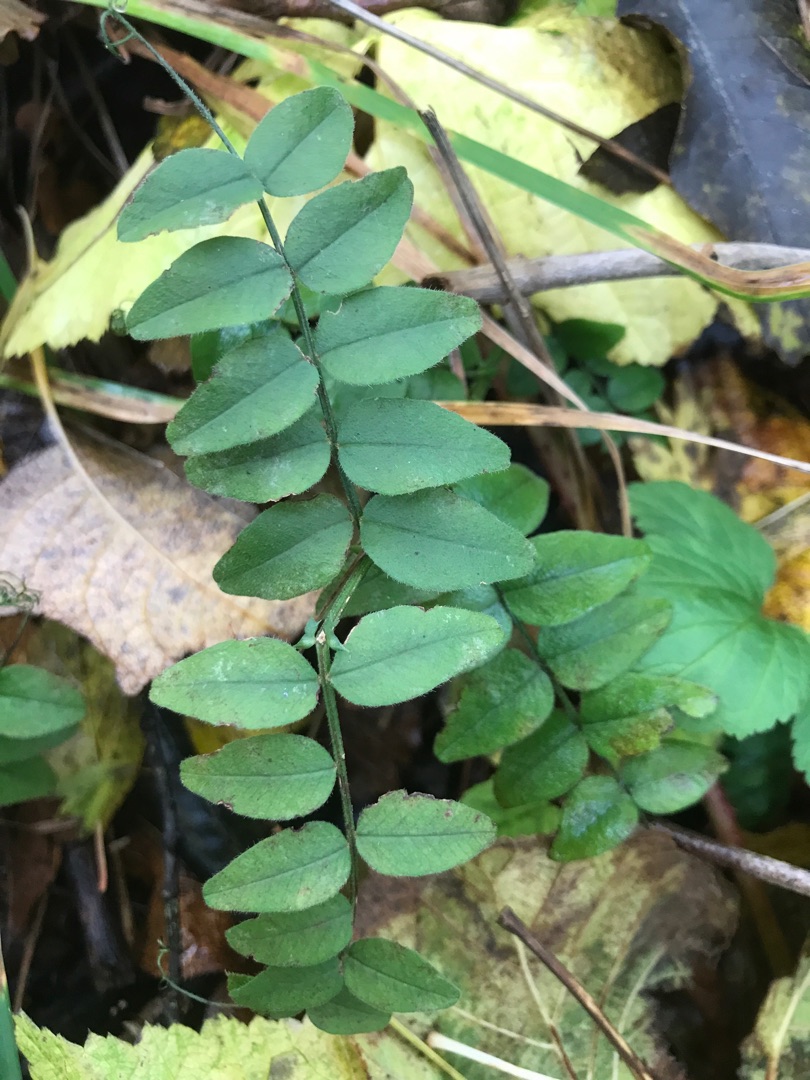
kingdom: Plantae
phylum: Tracheophyta
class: Magnoliopsida
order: Fabales
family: Fabaceae
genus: Vicia
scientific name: Vicia sepium
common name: Gærde-vikke
